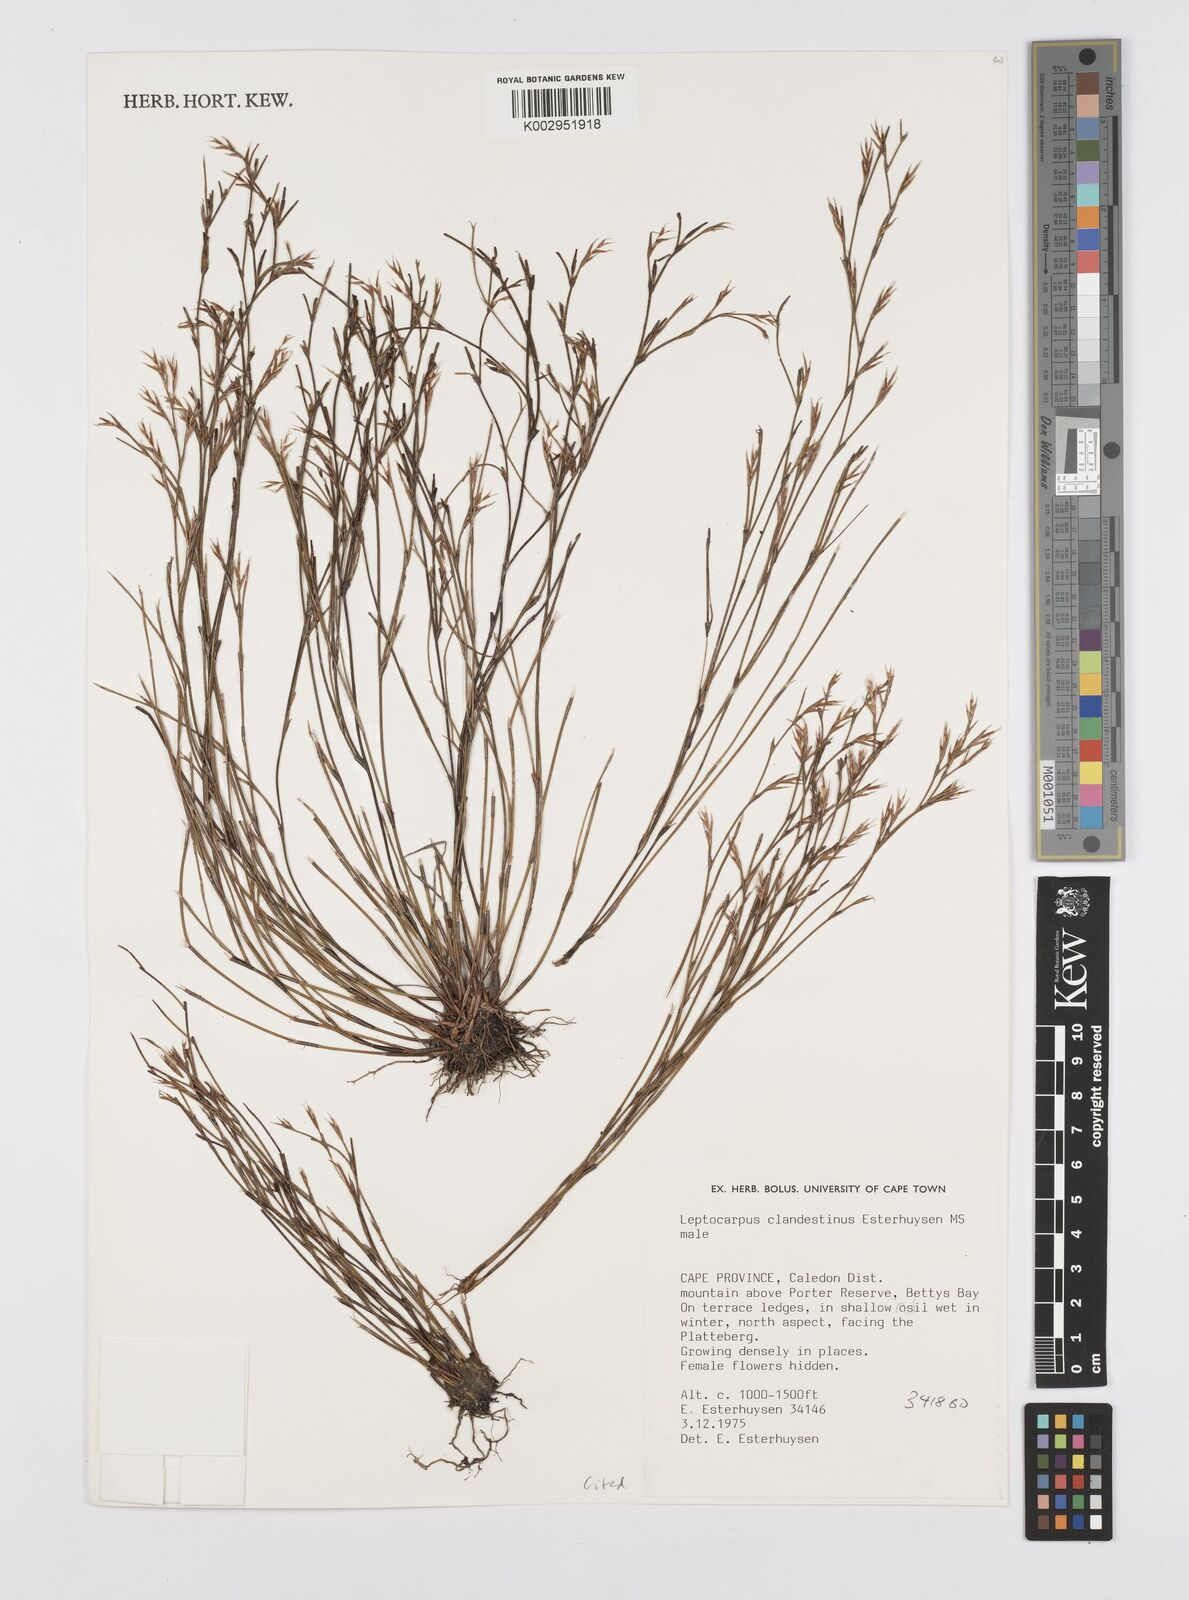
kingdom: Plantae
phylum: Tracheophyta
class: Liliopsida
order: Poales
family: Restionaceae
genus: Restio
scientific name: Restio clandestinus
